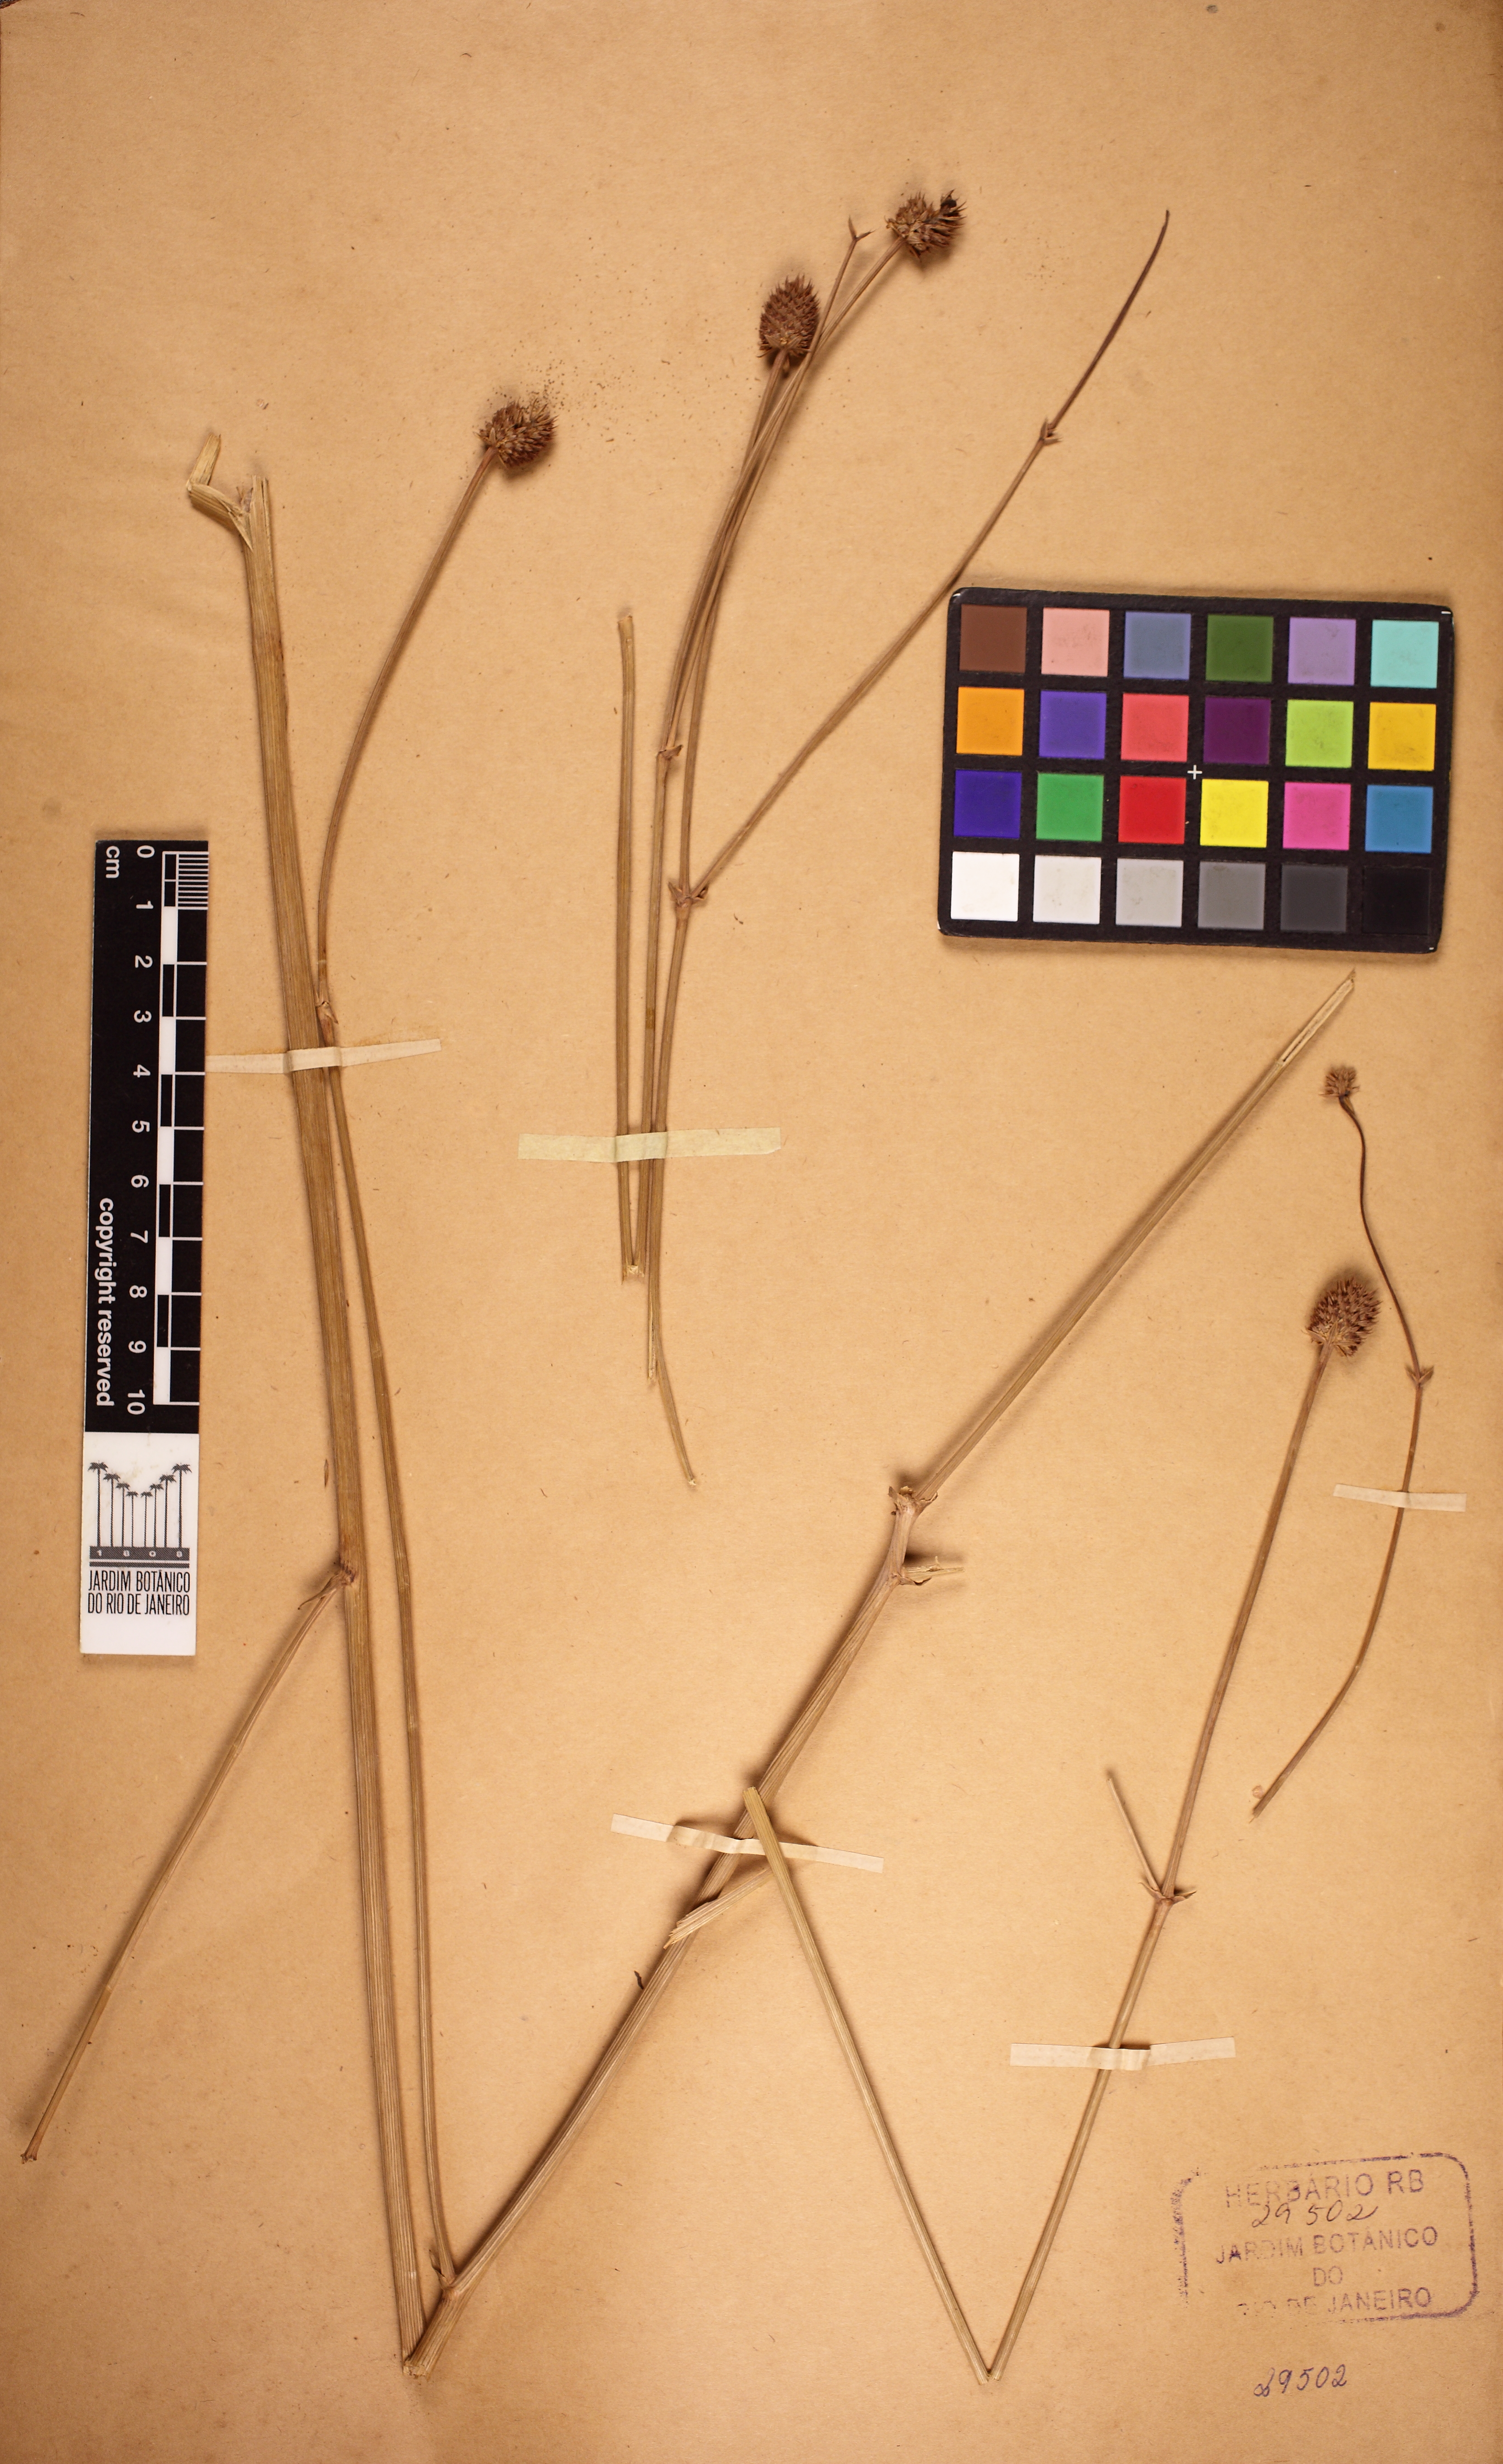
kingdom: Plantae
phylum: Tracheophyta
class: Magnoliopsida
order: Apiales
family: Apiaceae
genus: Eryngium
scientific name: Eryngium sanguisorba
